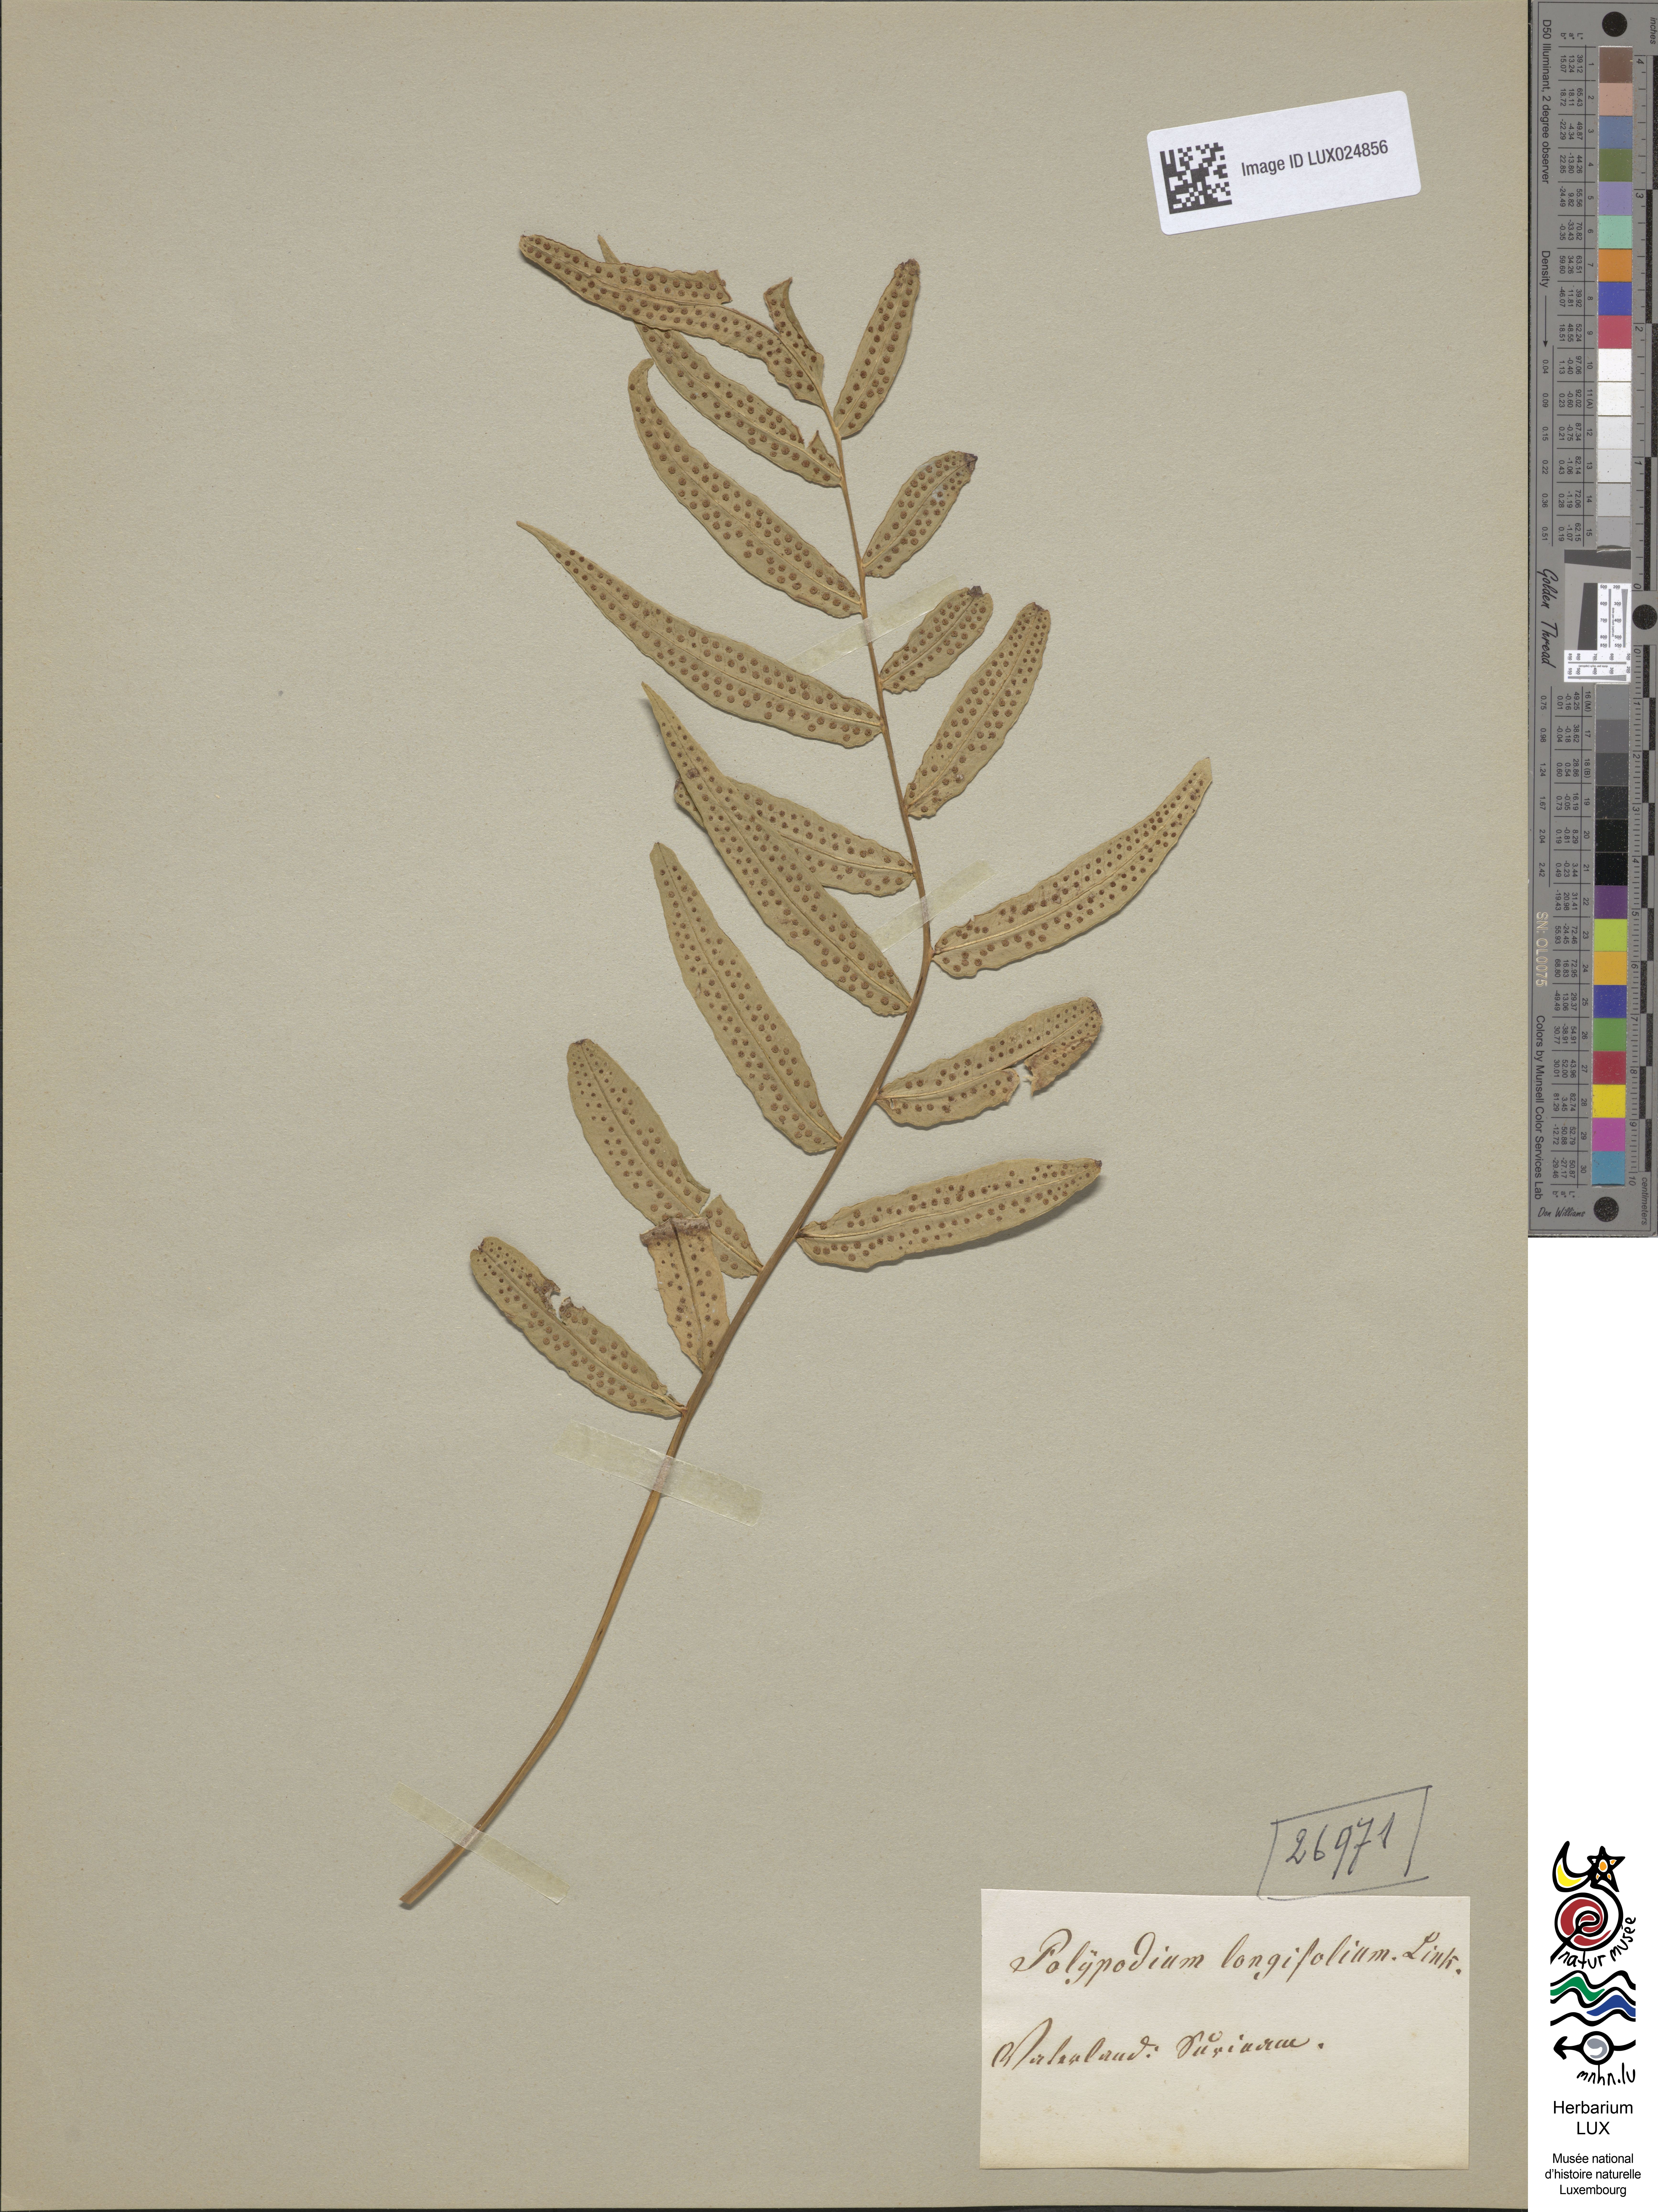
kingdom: Plantae
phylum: Tracheophyta
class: Polypodiopsida
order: Polypodiales
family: Polypodiaceae
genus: Polypodium
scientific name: Polypodium
